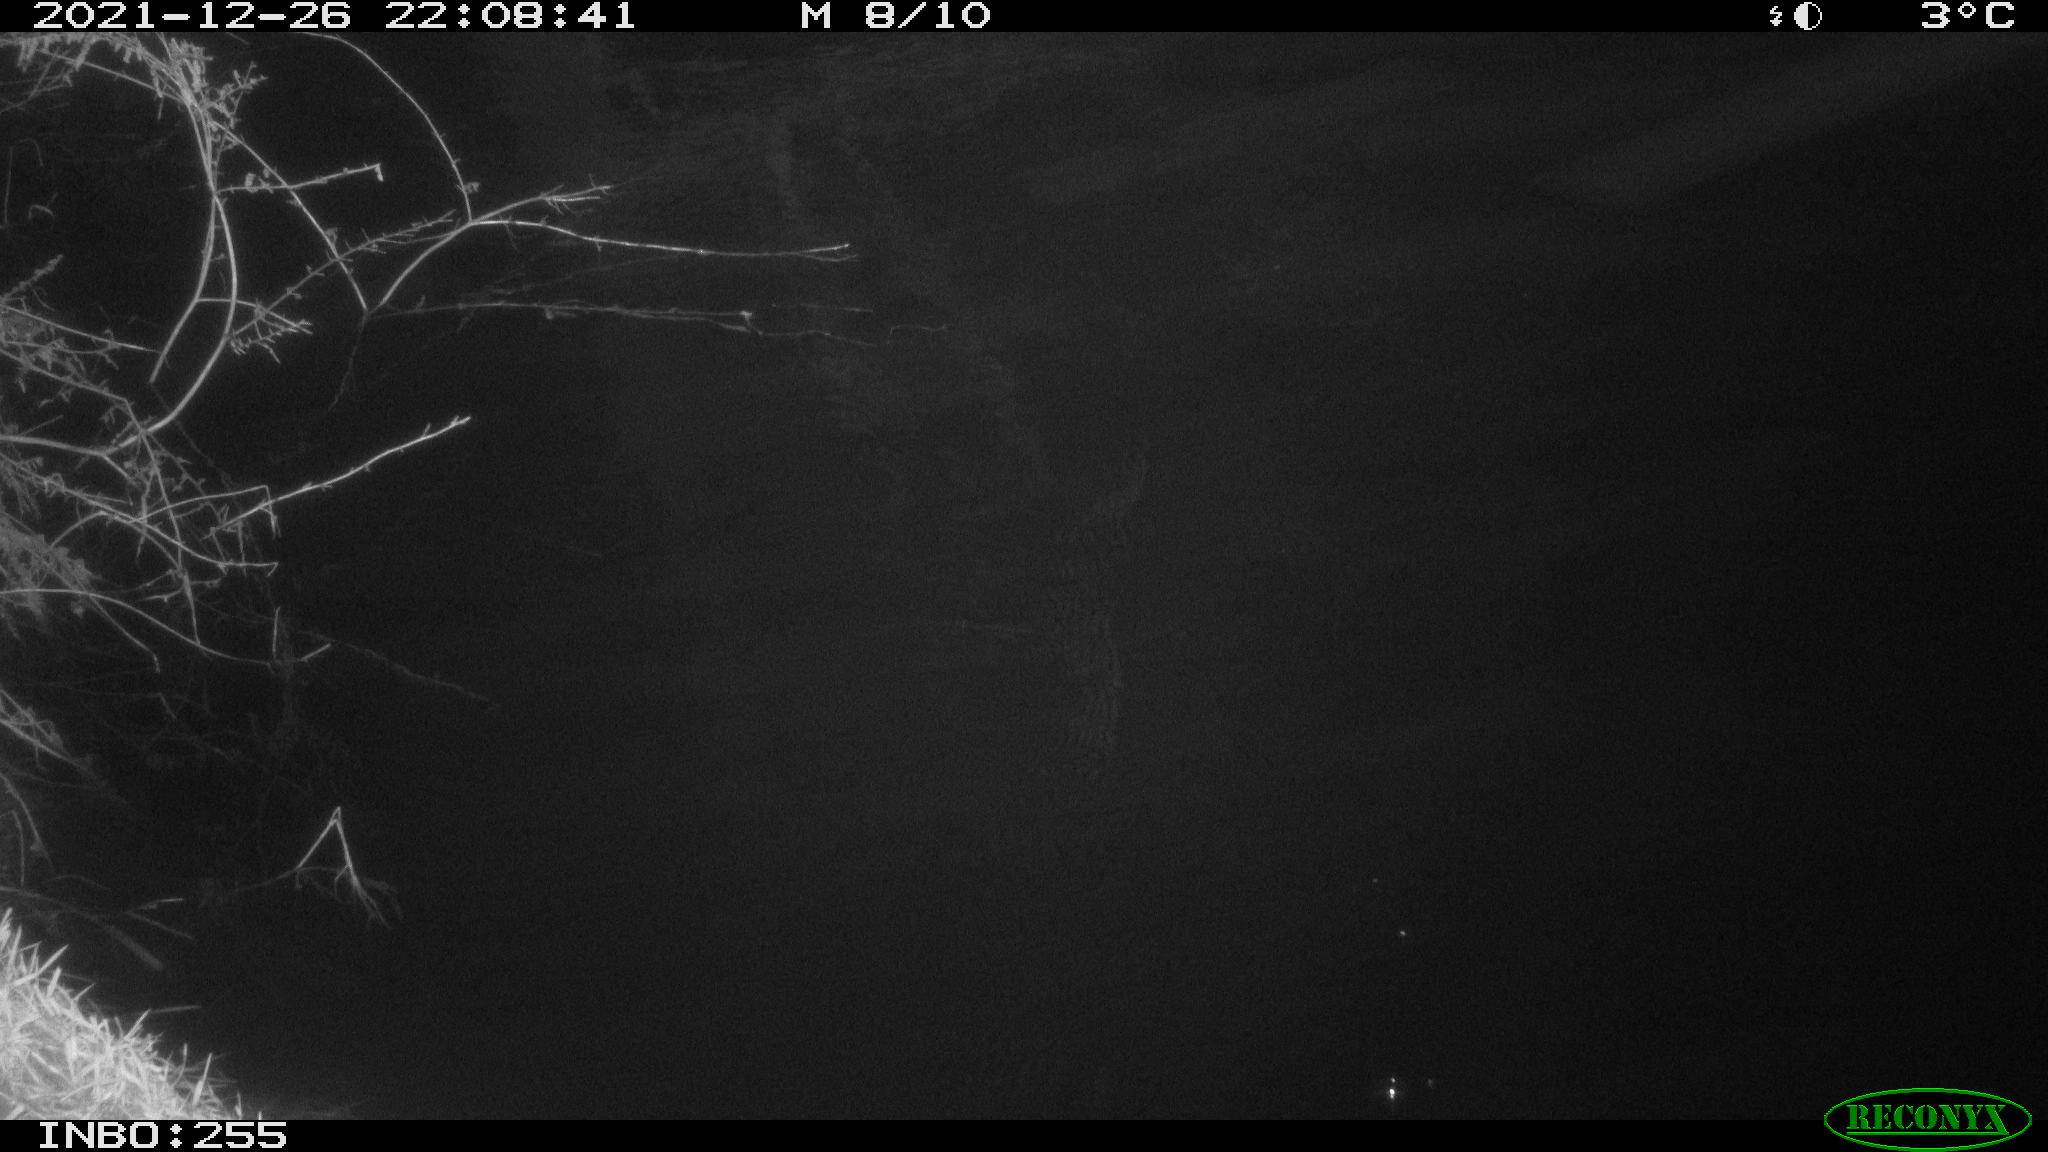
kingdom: Animalia
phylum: Chordata
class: Mammalia
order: Rodentia
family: Muridae
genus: Rattus
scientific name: Rattus norvegicus
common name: Brown rat
